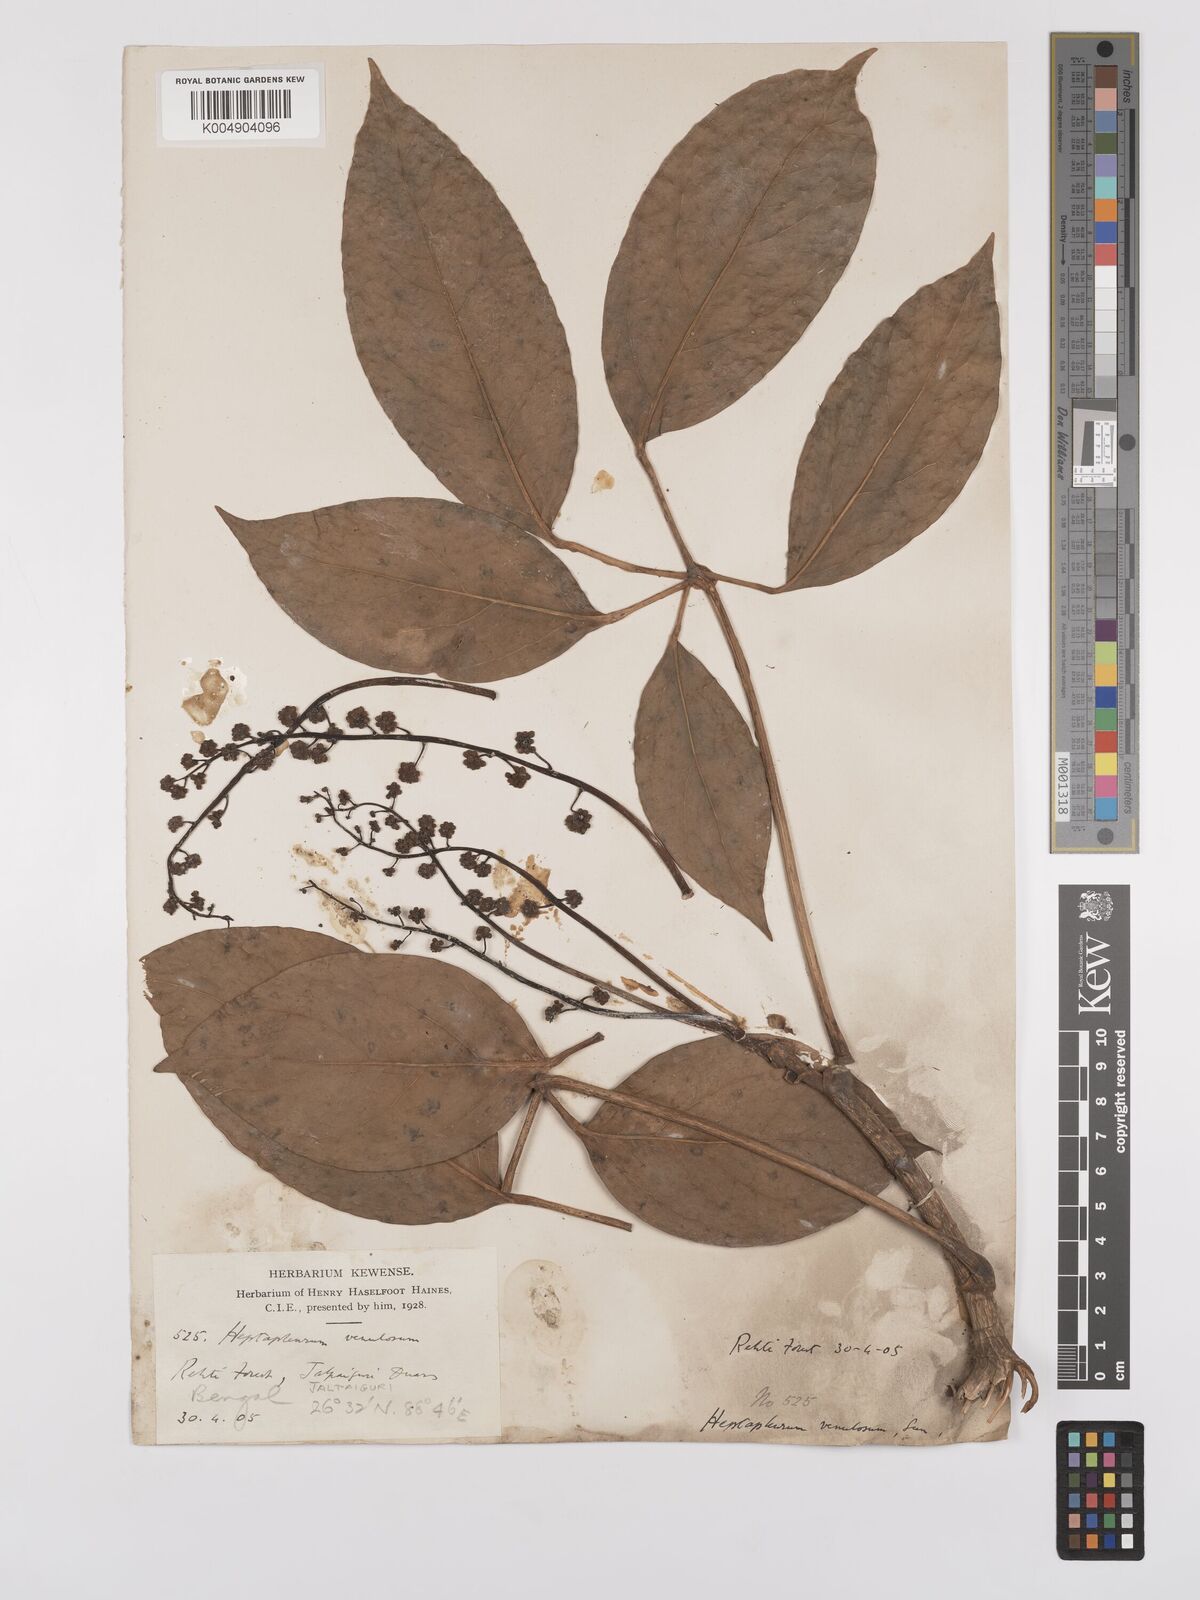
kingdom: Plantae
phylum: Tracheophyta
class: Magnoliopsida
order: Apiales
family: Araliaceae
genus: Heptapleurum
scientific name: Heptapleurum venulosum
